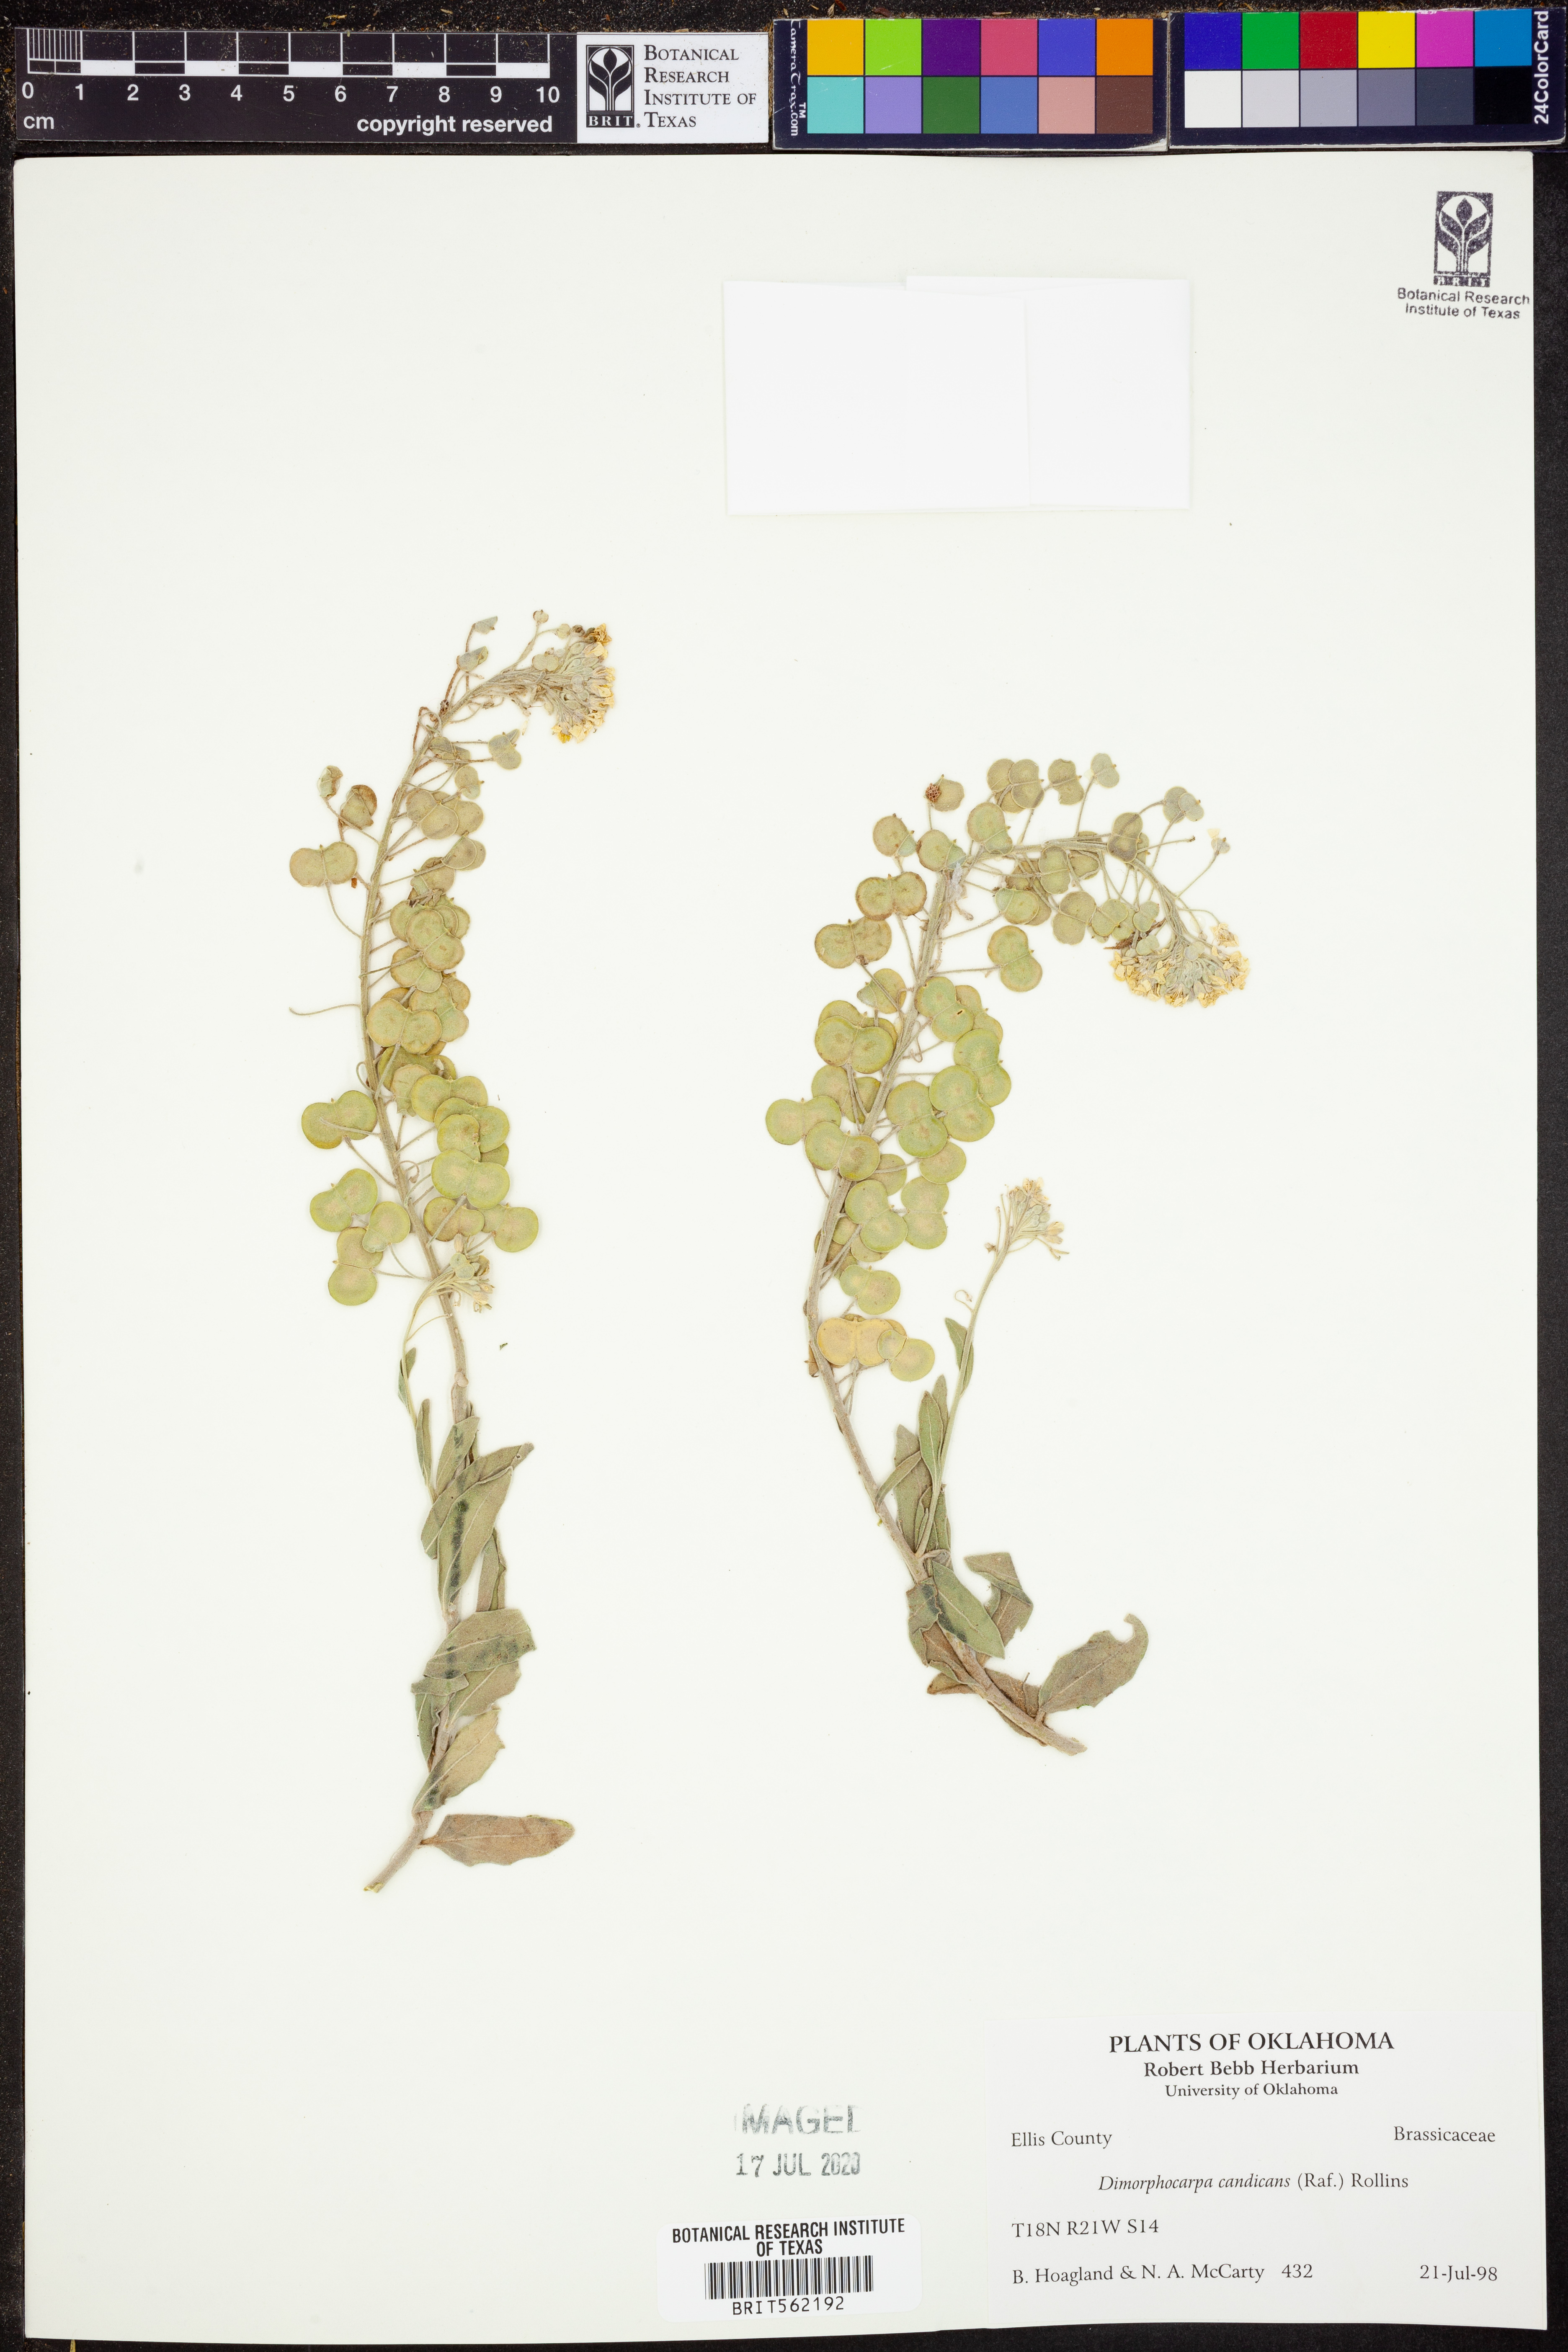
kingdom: Plantae
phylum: Tracheophyta
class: Magnoliopsida
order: Brassicales
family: Brassicaceae
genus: Dimorphocarpa
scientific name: Dimorphocarpa candicans
